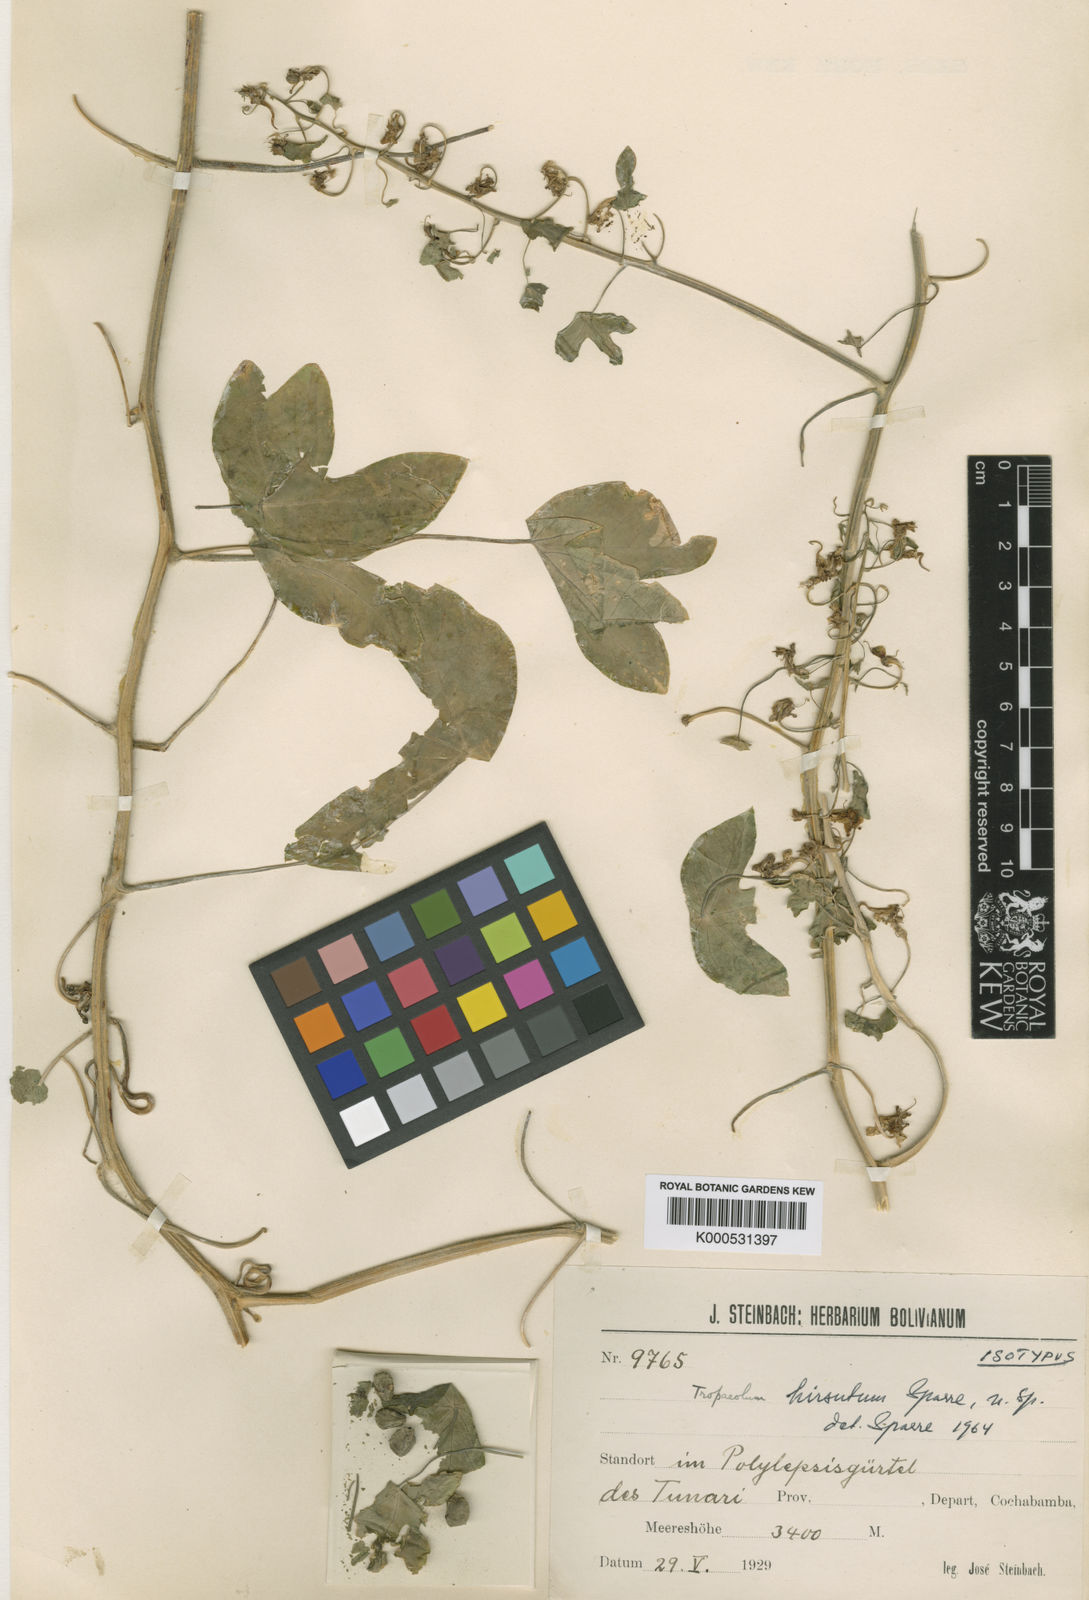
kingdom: Plantae
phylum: Tracheophyta
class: Magnoliopsida
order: Brassicales
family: Tropaeolaceae
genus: Tropaeolum
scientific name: Tropaeolum hirsutum
